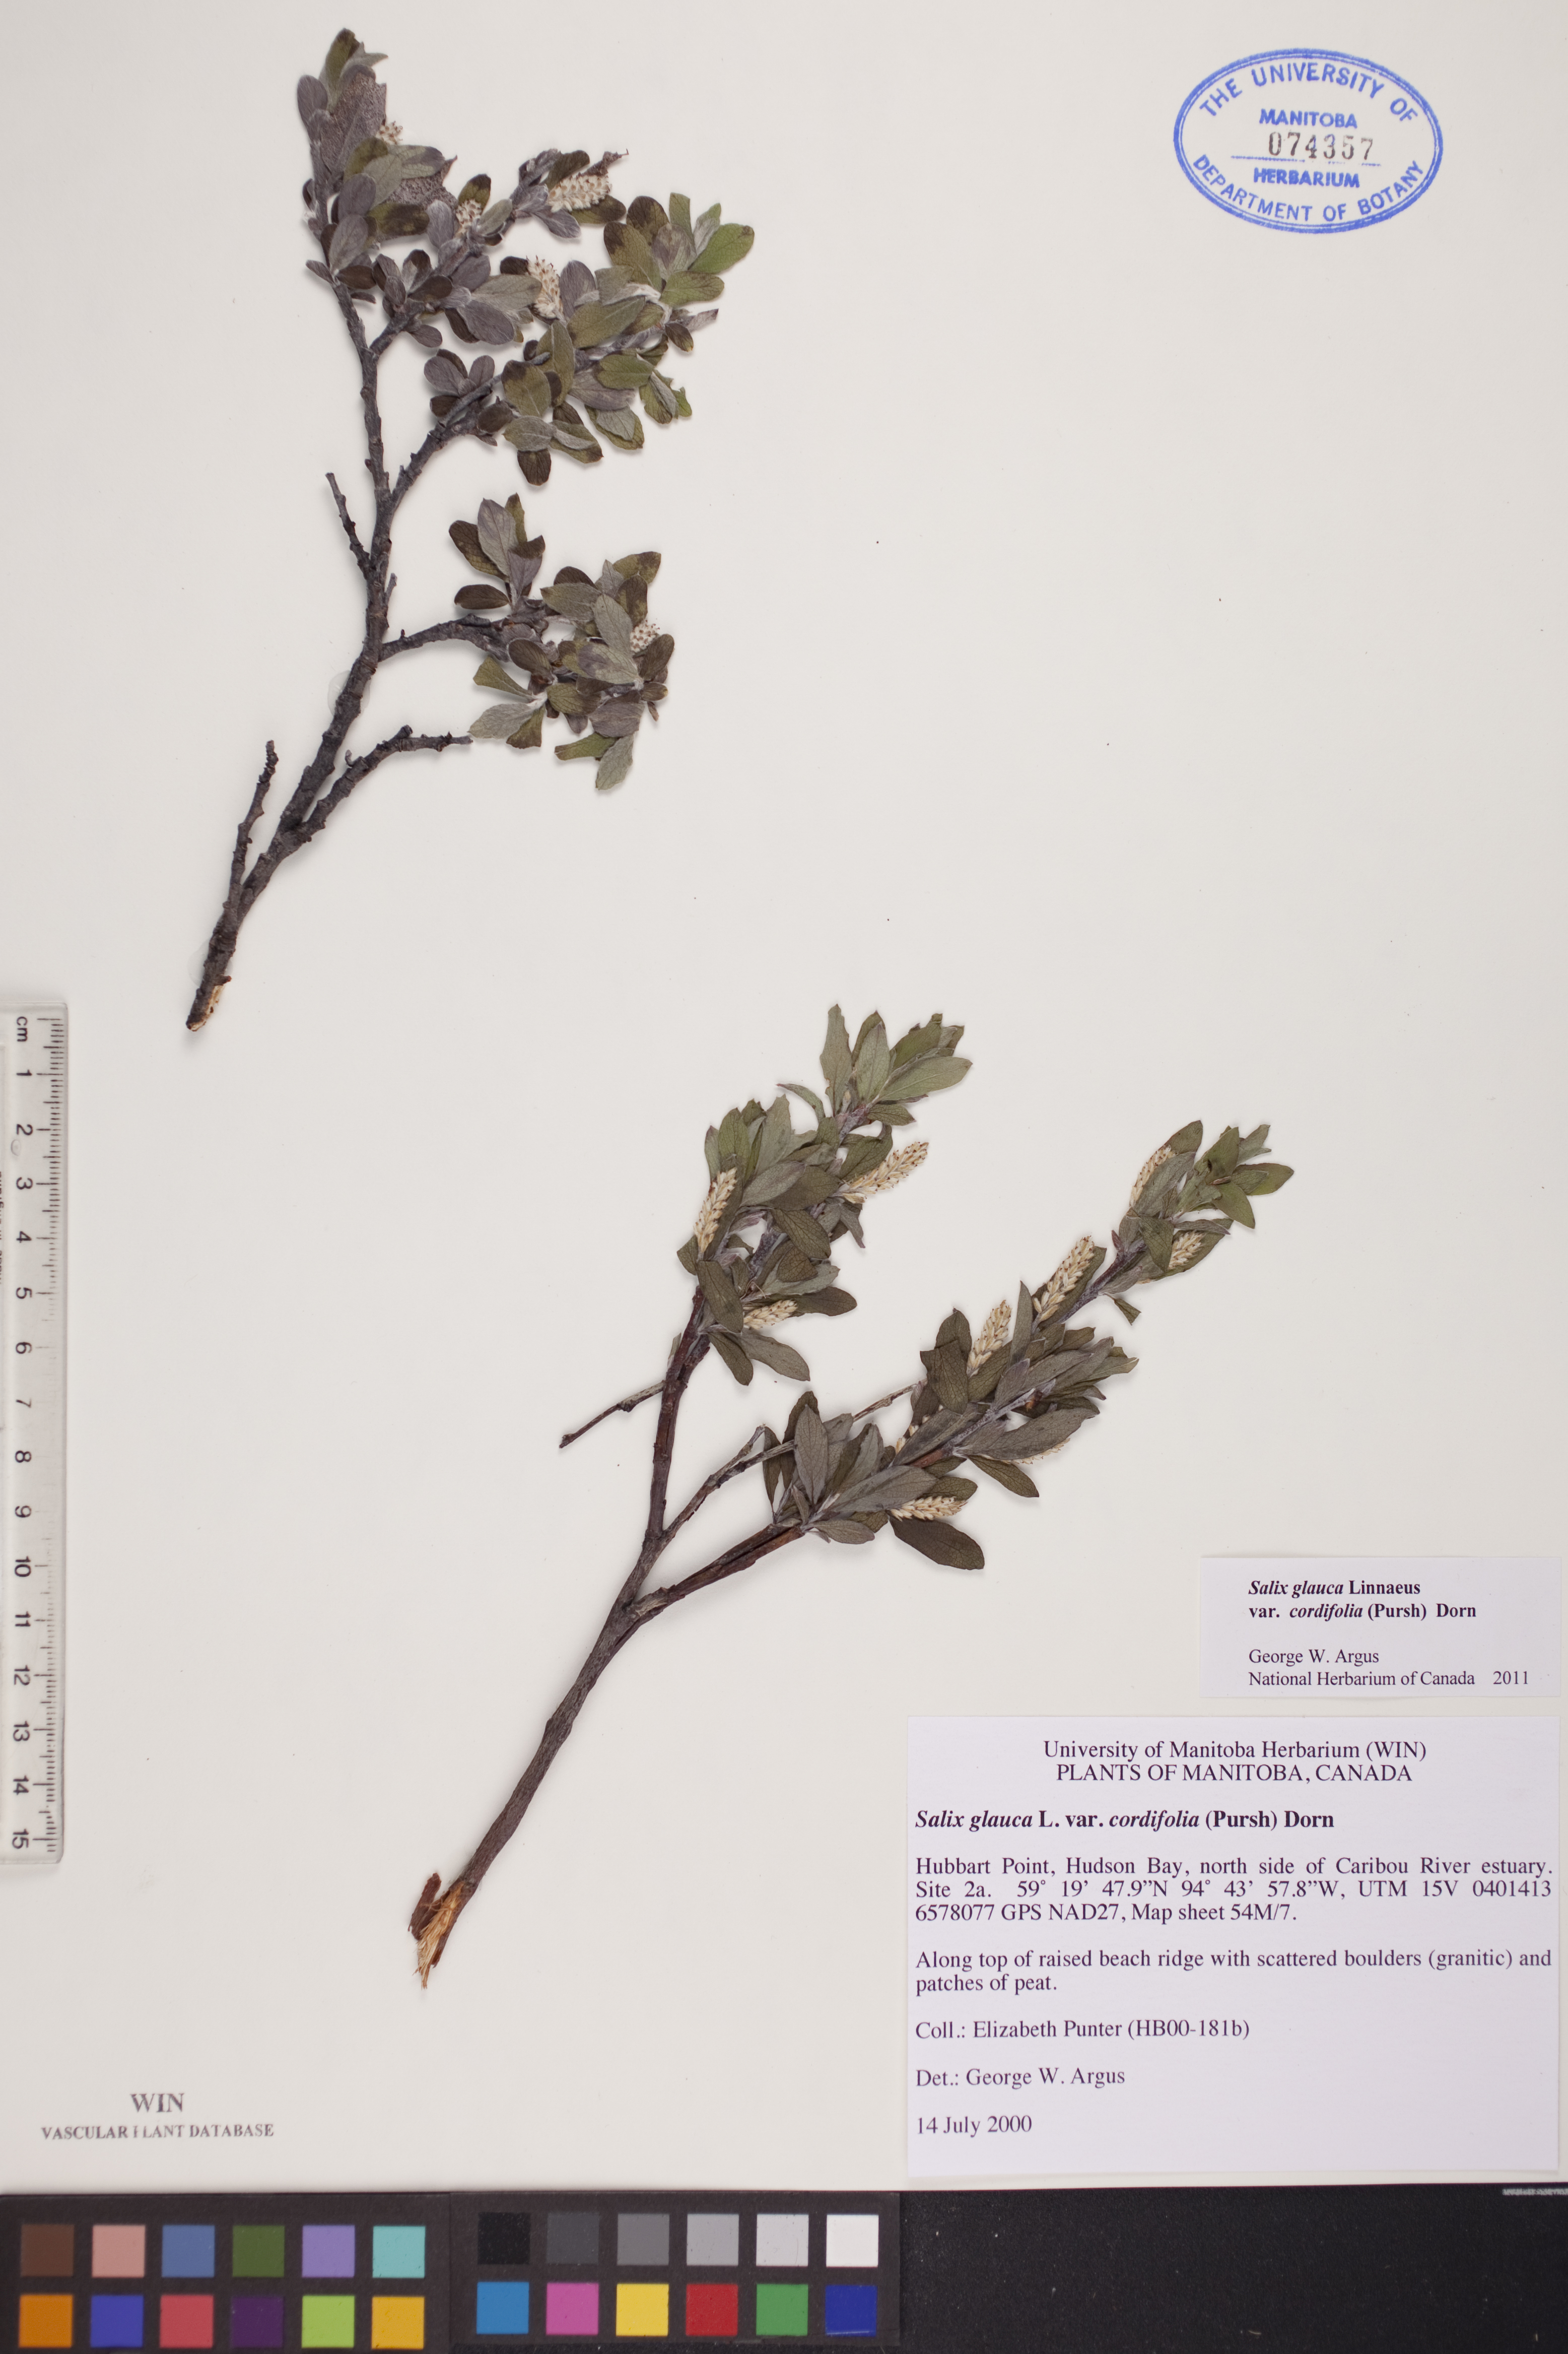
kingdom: Plantae
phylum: Tracheophyta
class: Magnoliopsida
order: Malpighiales
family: Salicaceae
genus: Salix
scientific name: Salix glauca
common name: Glaucous willow
